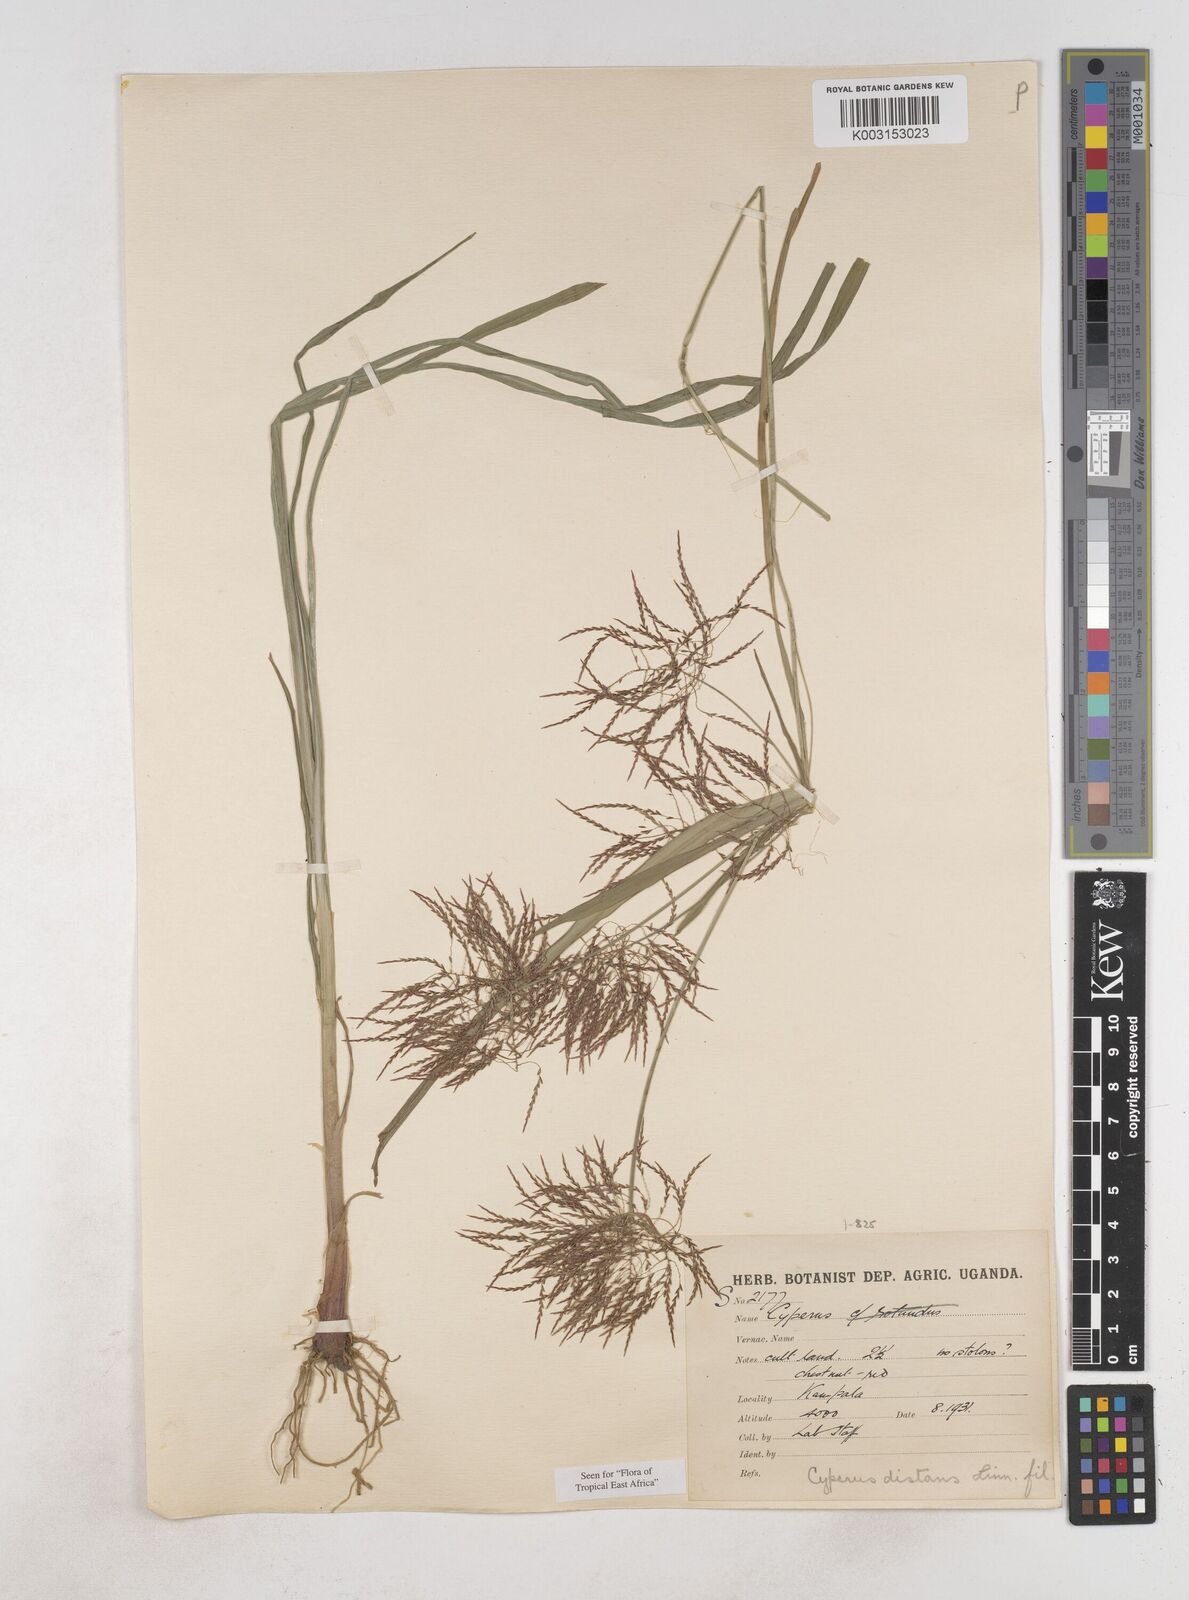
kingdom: Plantae
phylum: Tracheophyta
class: Liliopsida
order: Poales
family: Cyperaceae
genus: Cyperus
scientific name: Cyperus distans
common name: Slender cyperus
